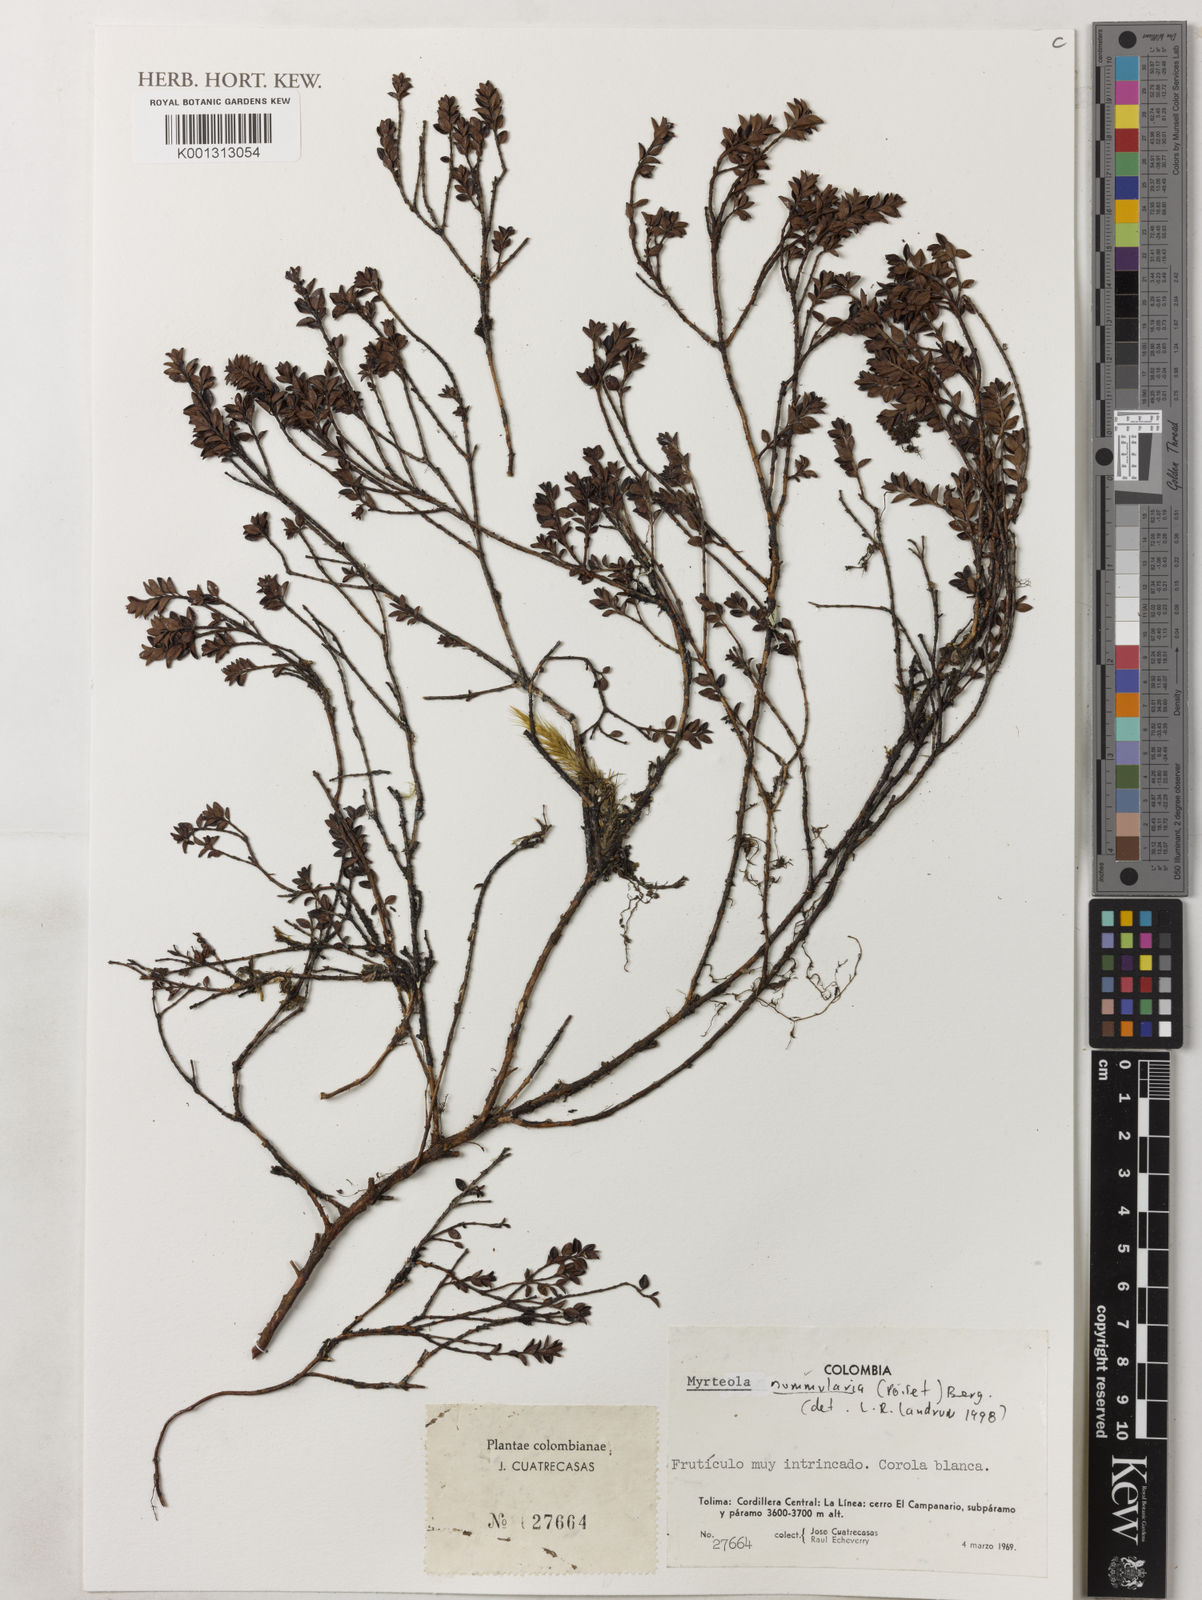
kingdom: Plantae
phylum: Tracheophyta
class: Magnoliopsida
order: Myrtales
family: Myrtaceae
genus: Myrteola
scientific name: Myrteola nummularia
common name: Cranberry-myrtle
